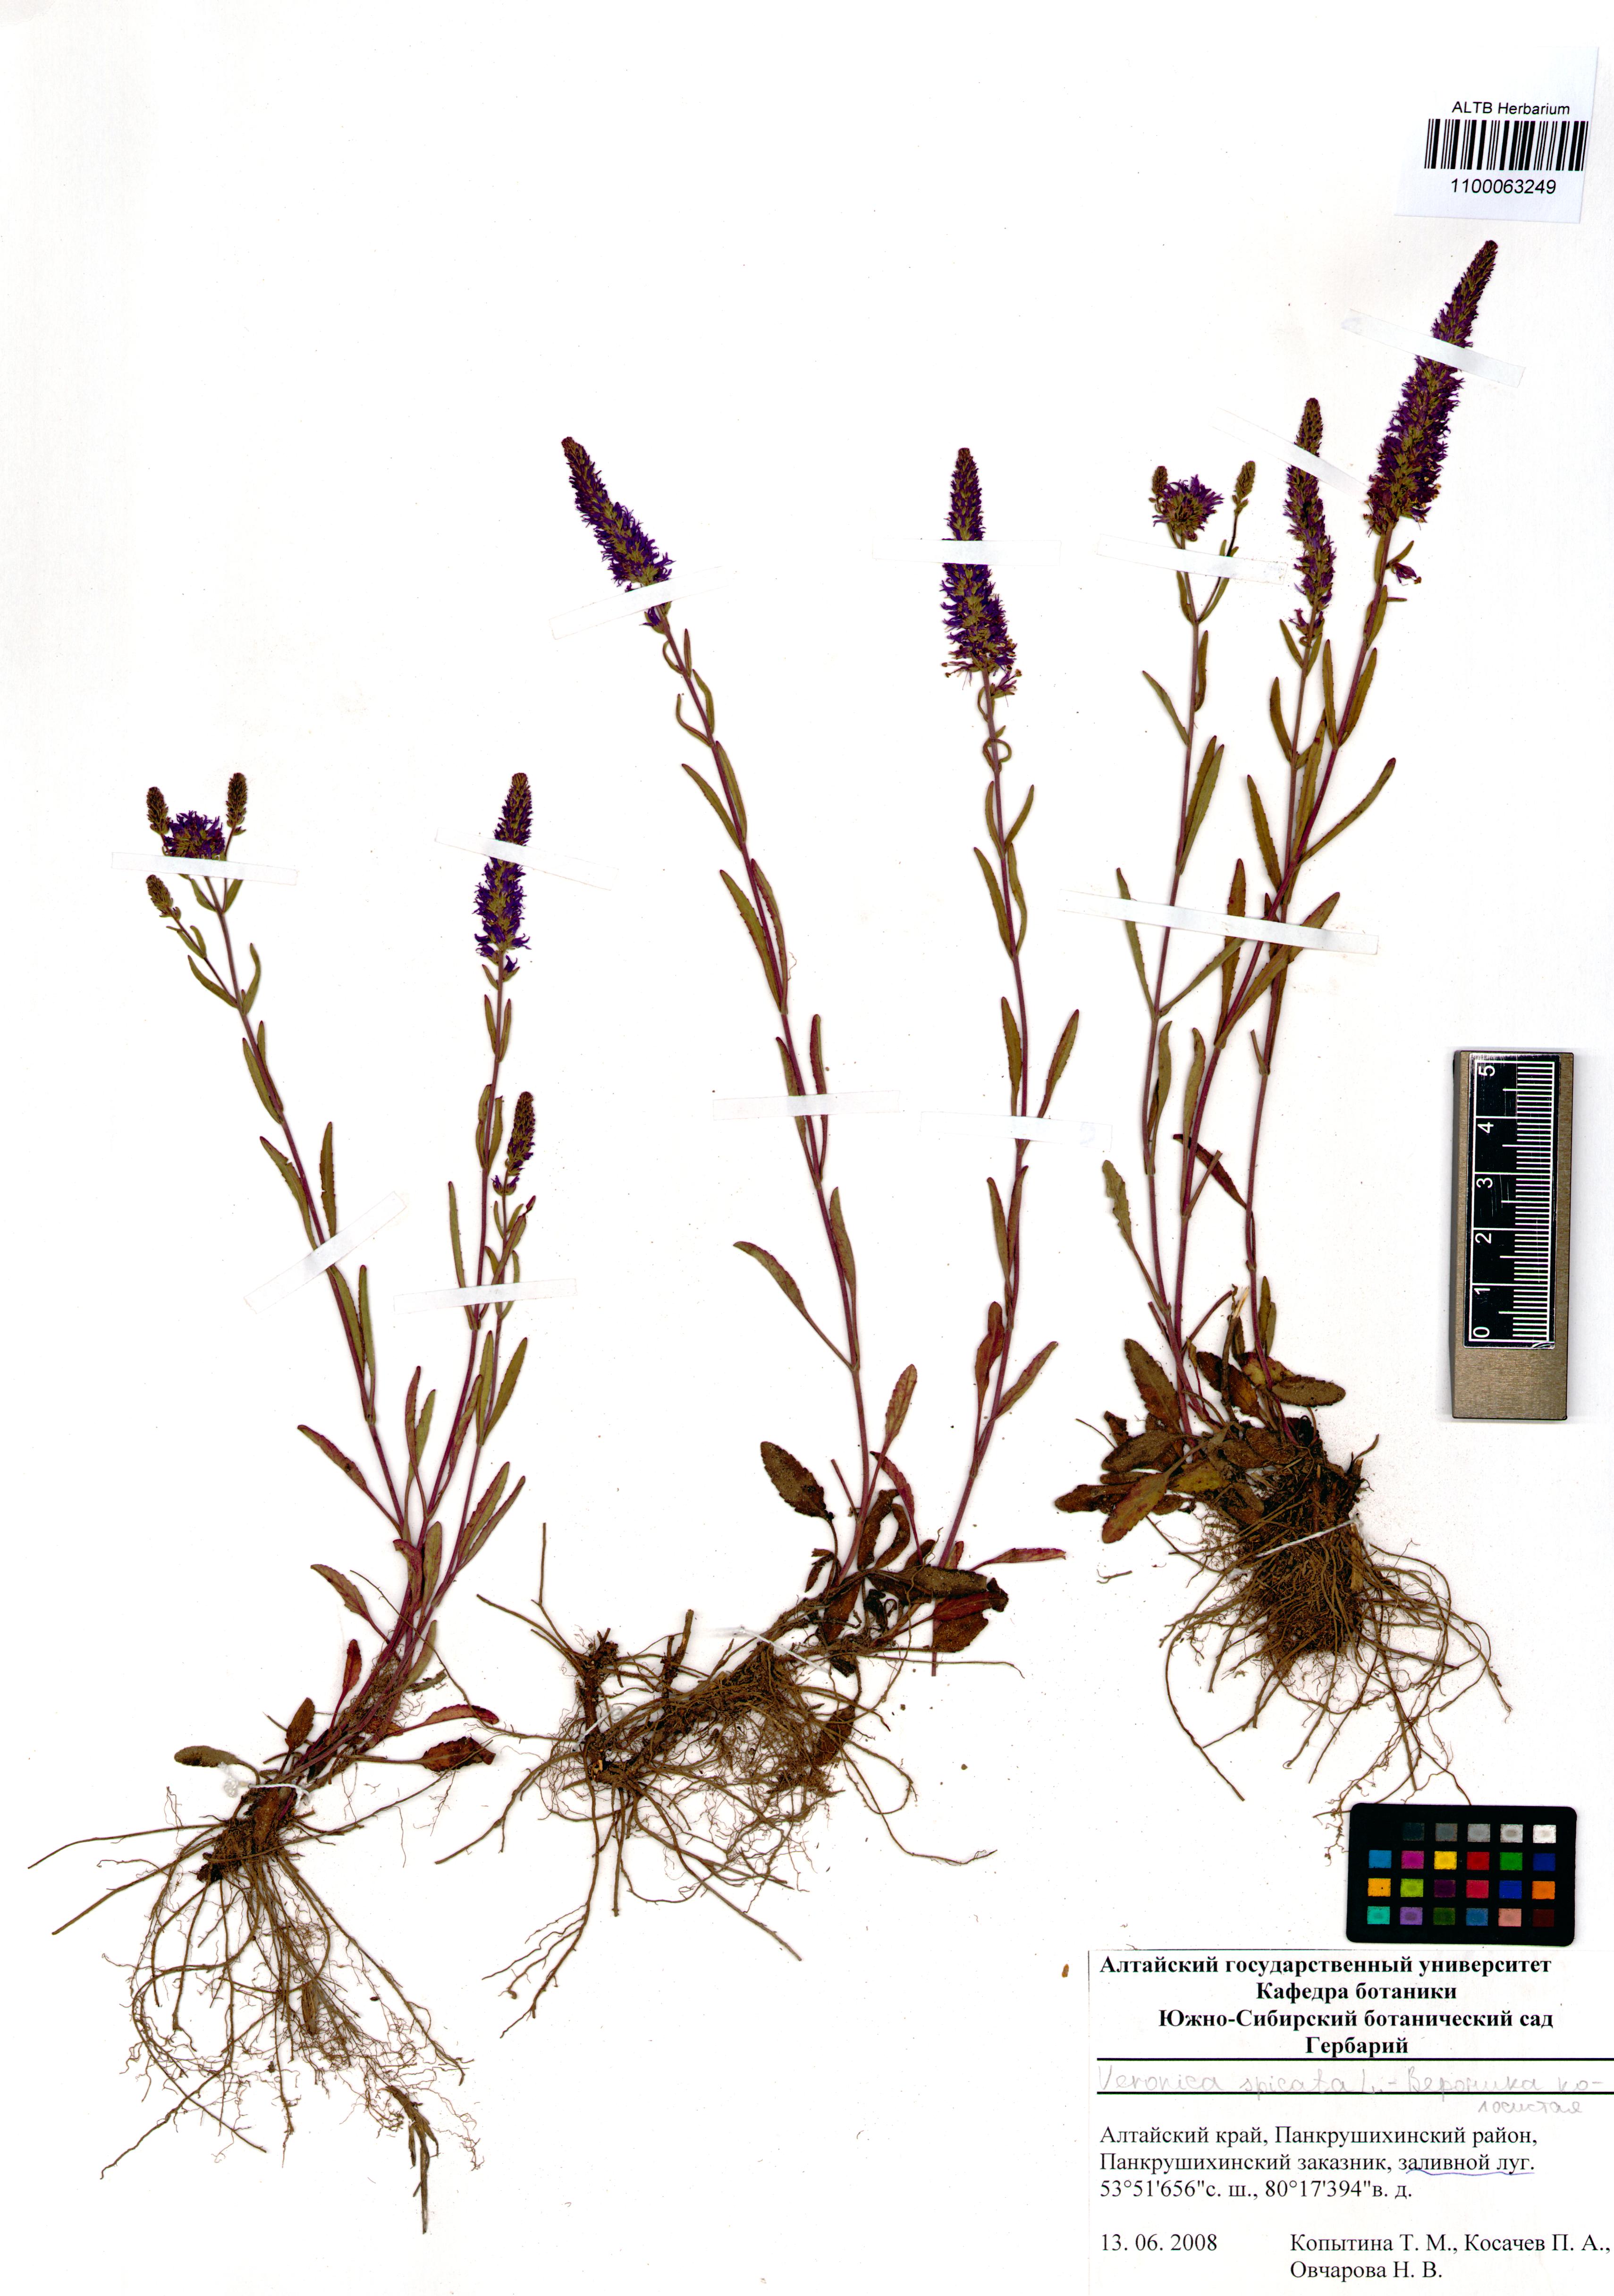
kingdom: Plantae
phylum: Tracheophyta
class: Magnoliopsida
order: Lamiales
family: Plantaginaceae
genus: Veronica
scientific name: Veronica spicata
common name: Spiked speedwell
